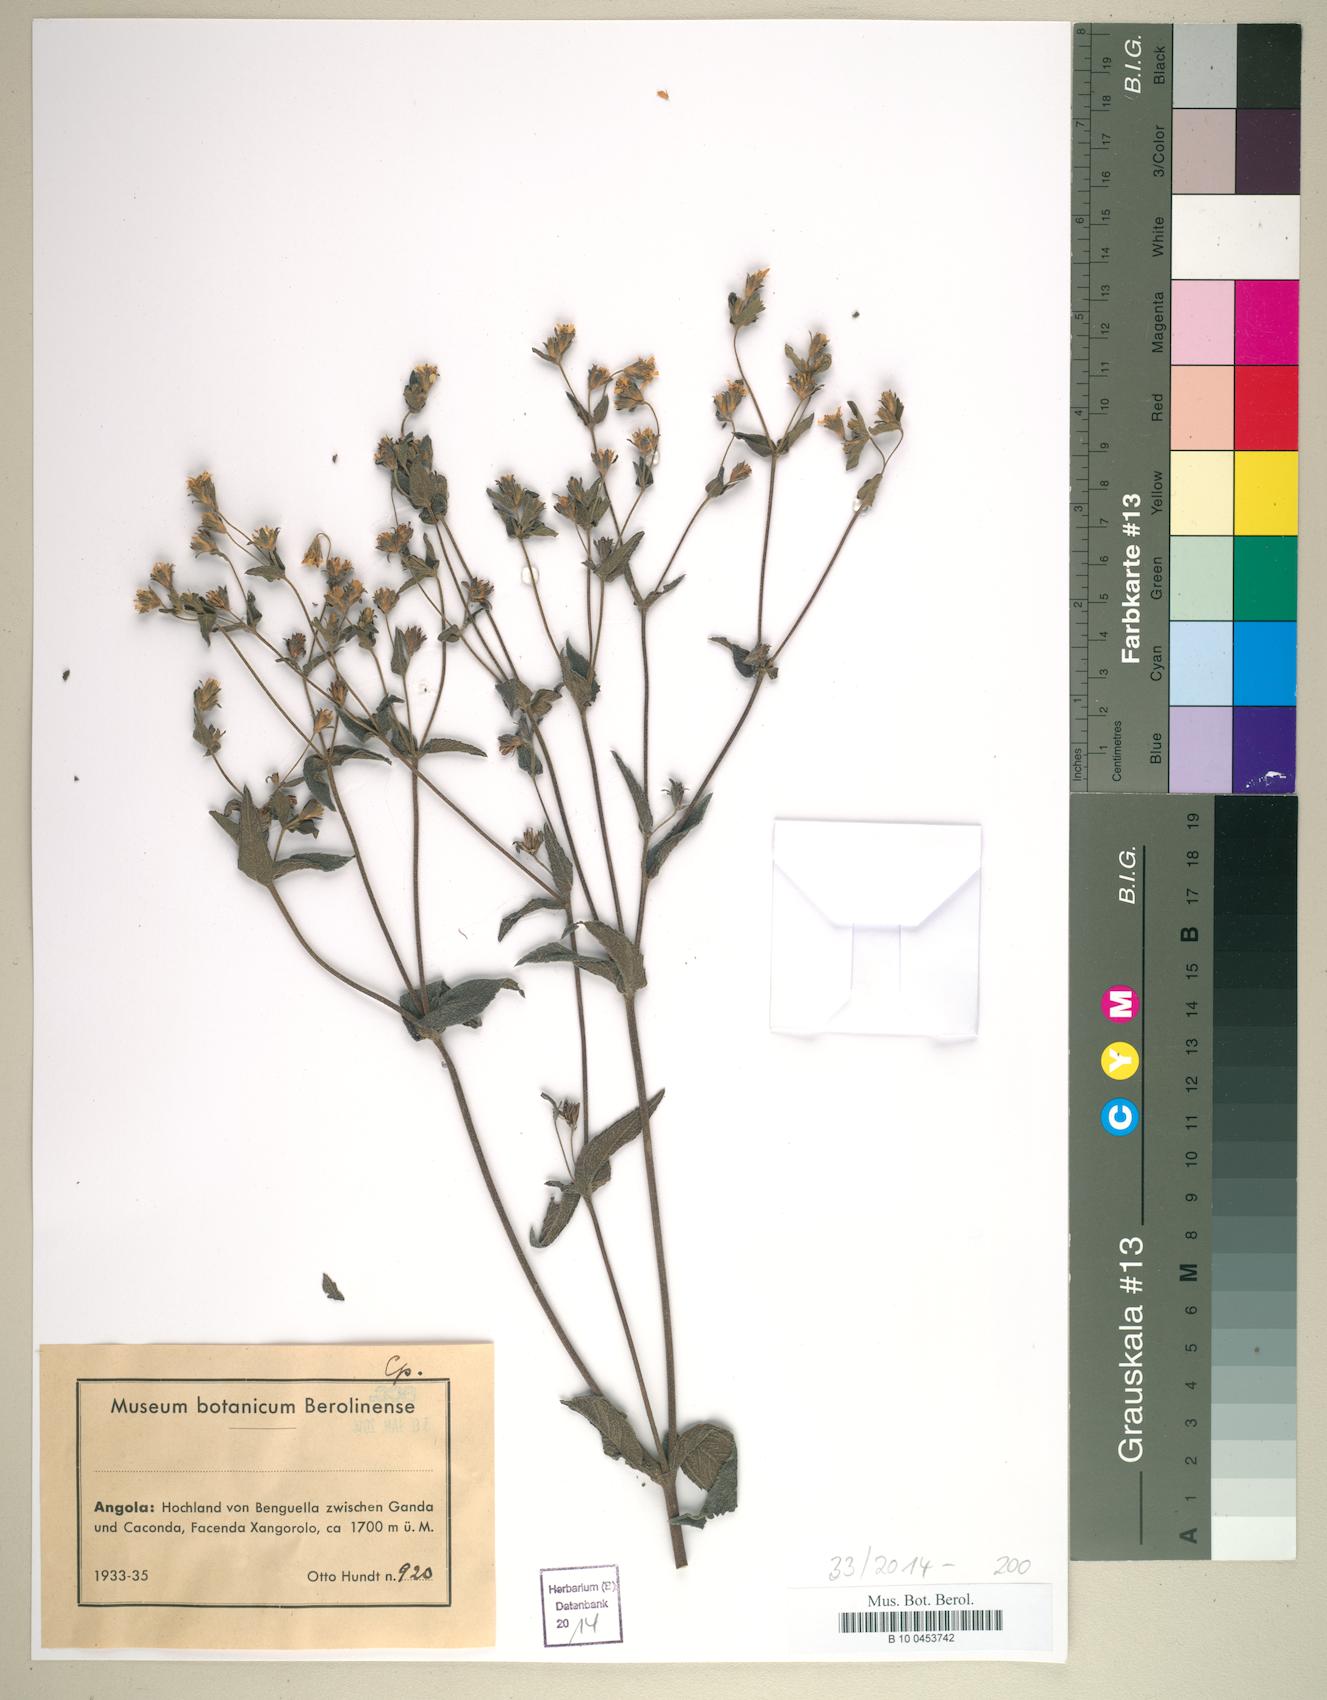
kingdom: Plantae
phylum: Tracheophyta
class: Magnoliopsida
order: Asterales
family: Asteraceae
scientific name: Asteraceae
